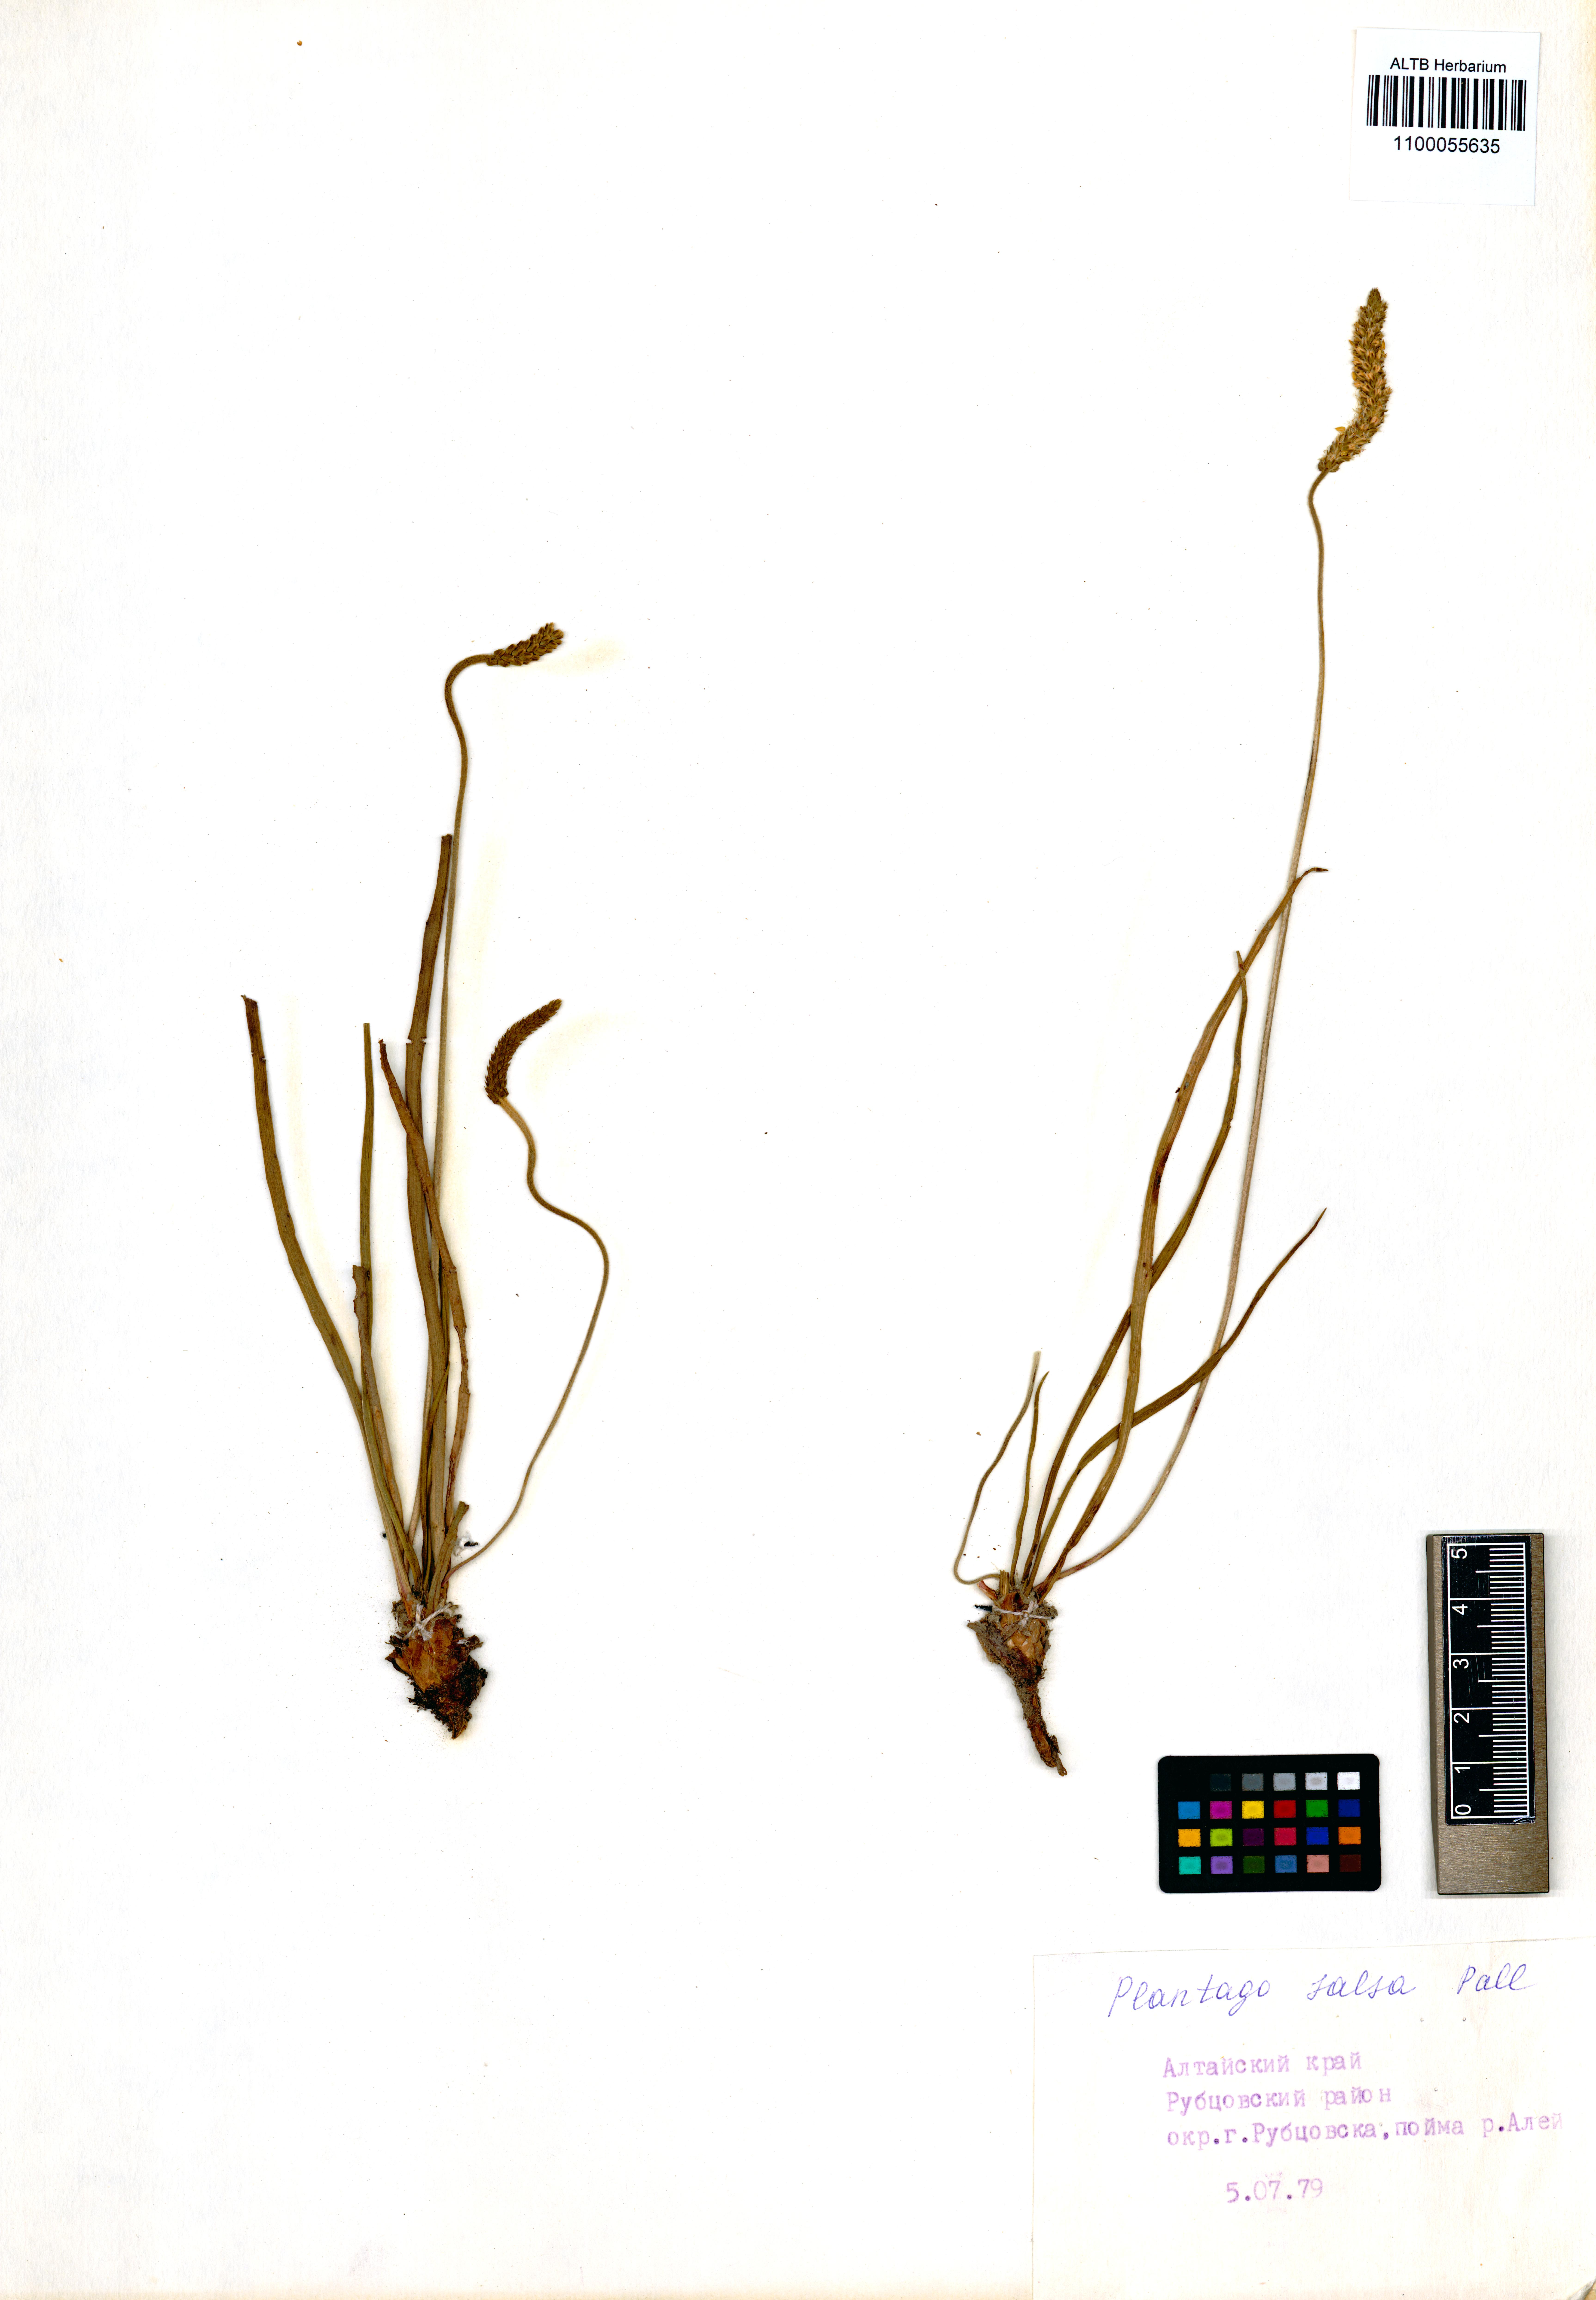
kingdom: Plantae
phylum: Tracheophyta
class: Magnoliopsida
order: Lamiales
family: Plantaginaceae
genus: Plantago
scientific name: Plantago salsa
